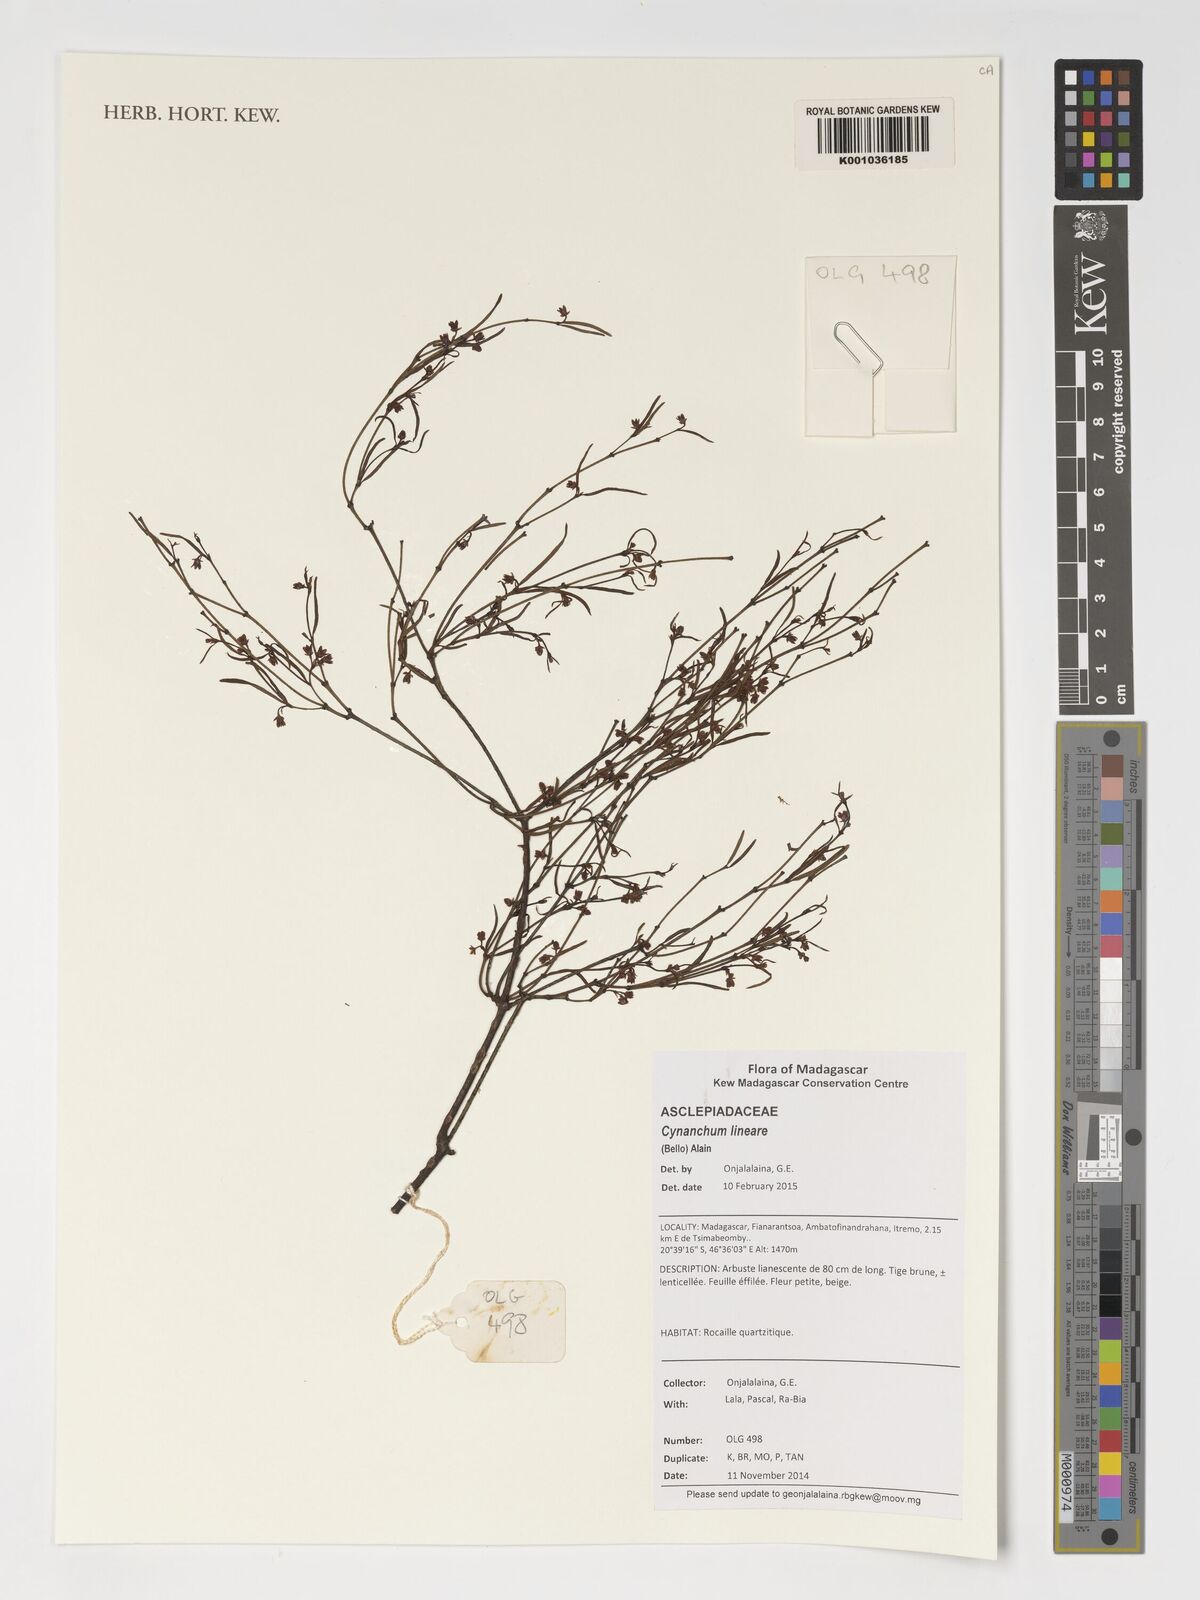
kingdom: Plantae
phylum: Tracheophyta
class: Magnoliopsida
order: Gentianales
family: Apocynaceae
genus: Secamone
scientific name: Secamone tenuifolia
